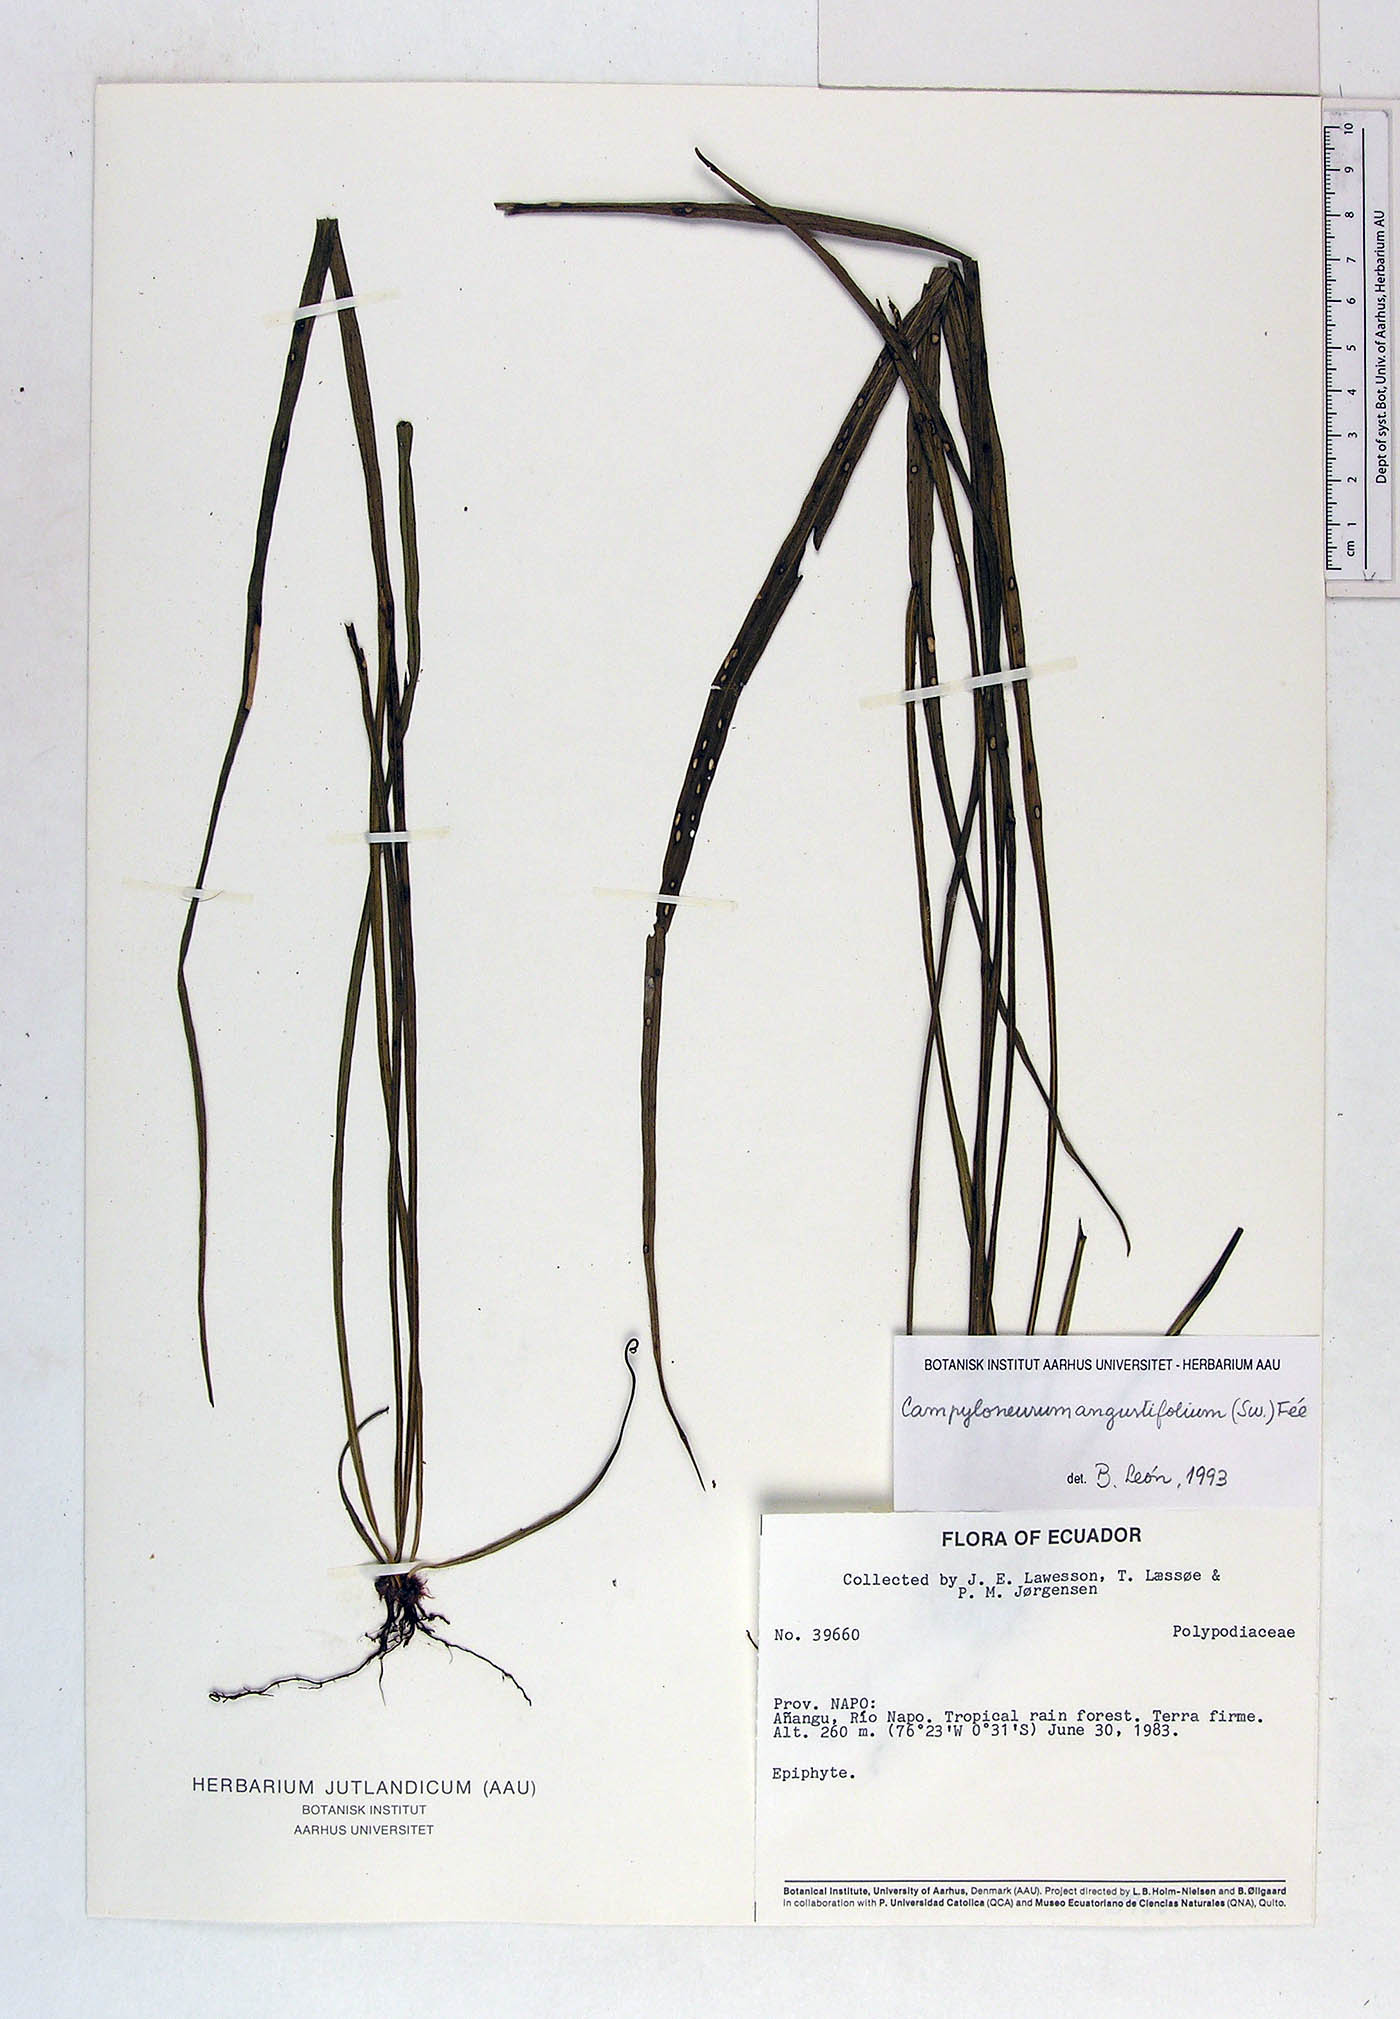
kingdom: Plantae
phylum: Tracheophyta
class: Polypodiopsida
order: Polypodiales
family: Polypodiaceae
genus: Campyloneurum
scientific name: Campyloneurum angustifolium
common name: Narrow-leaf strap fern
